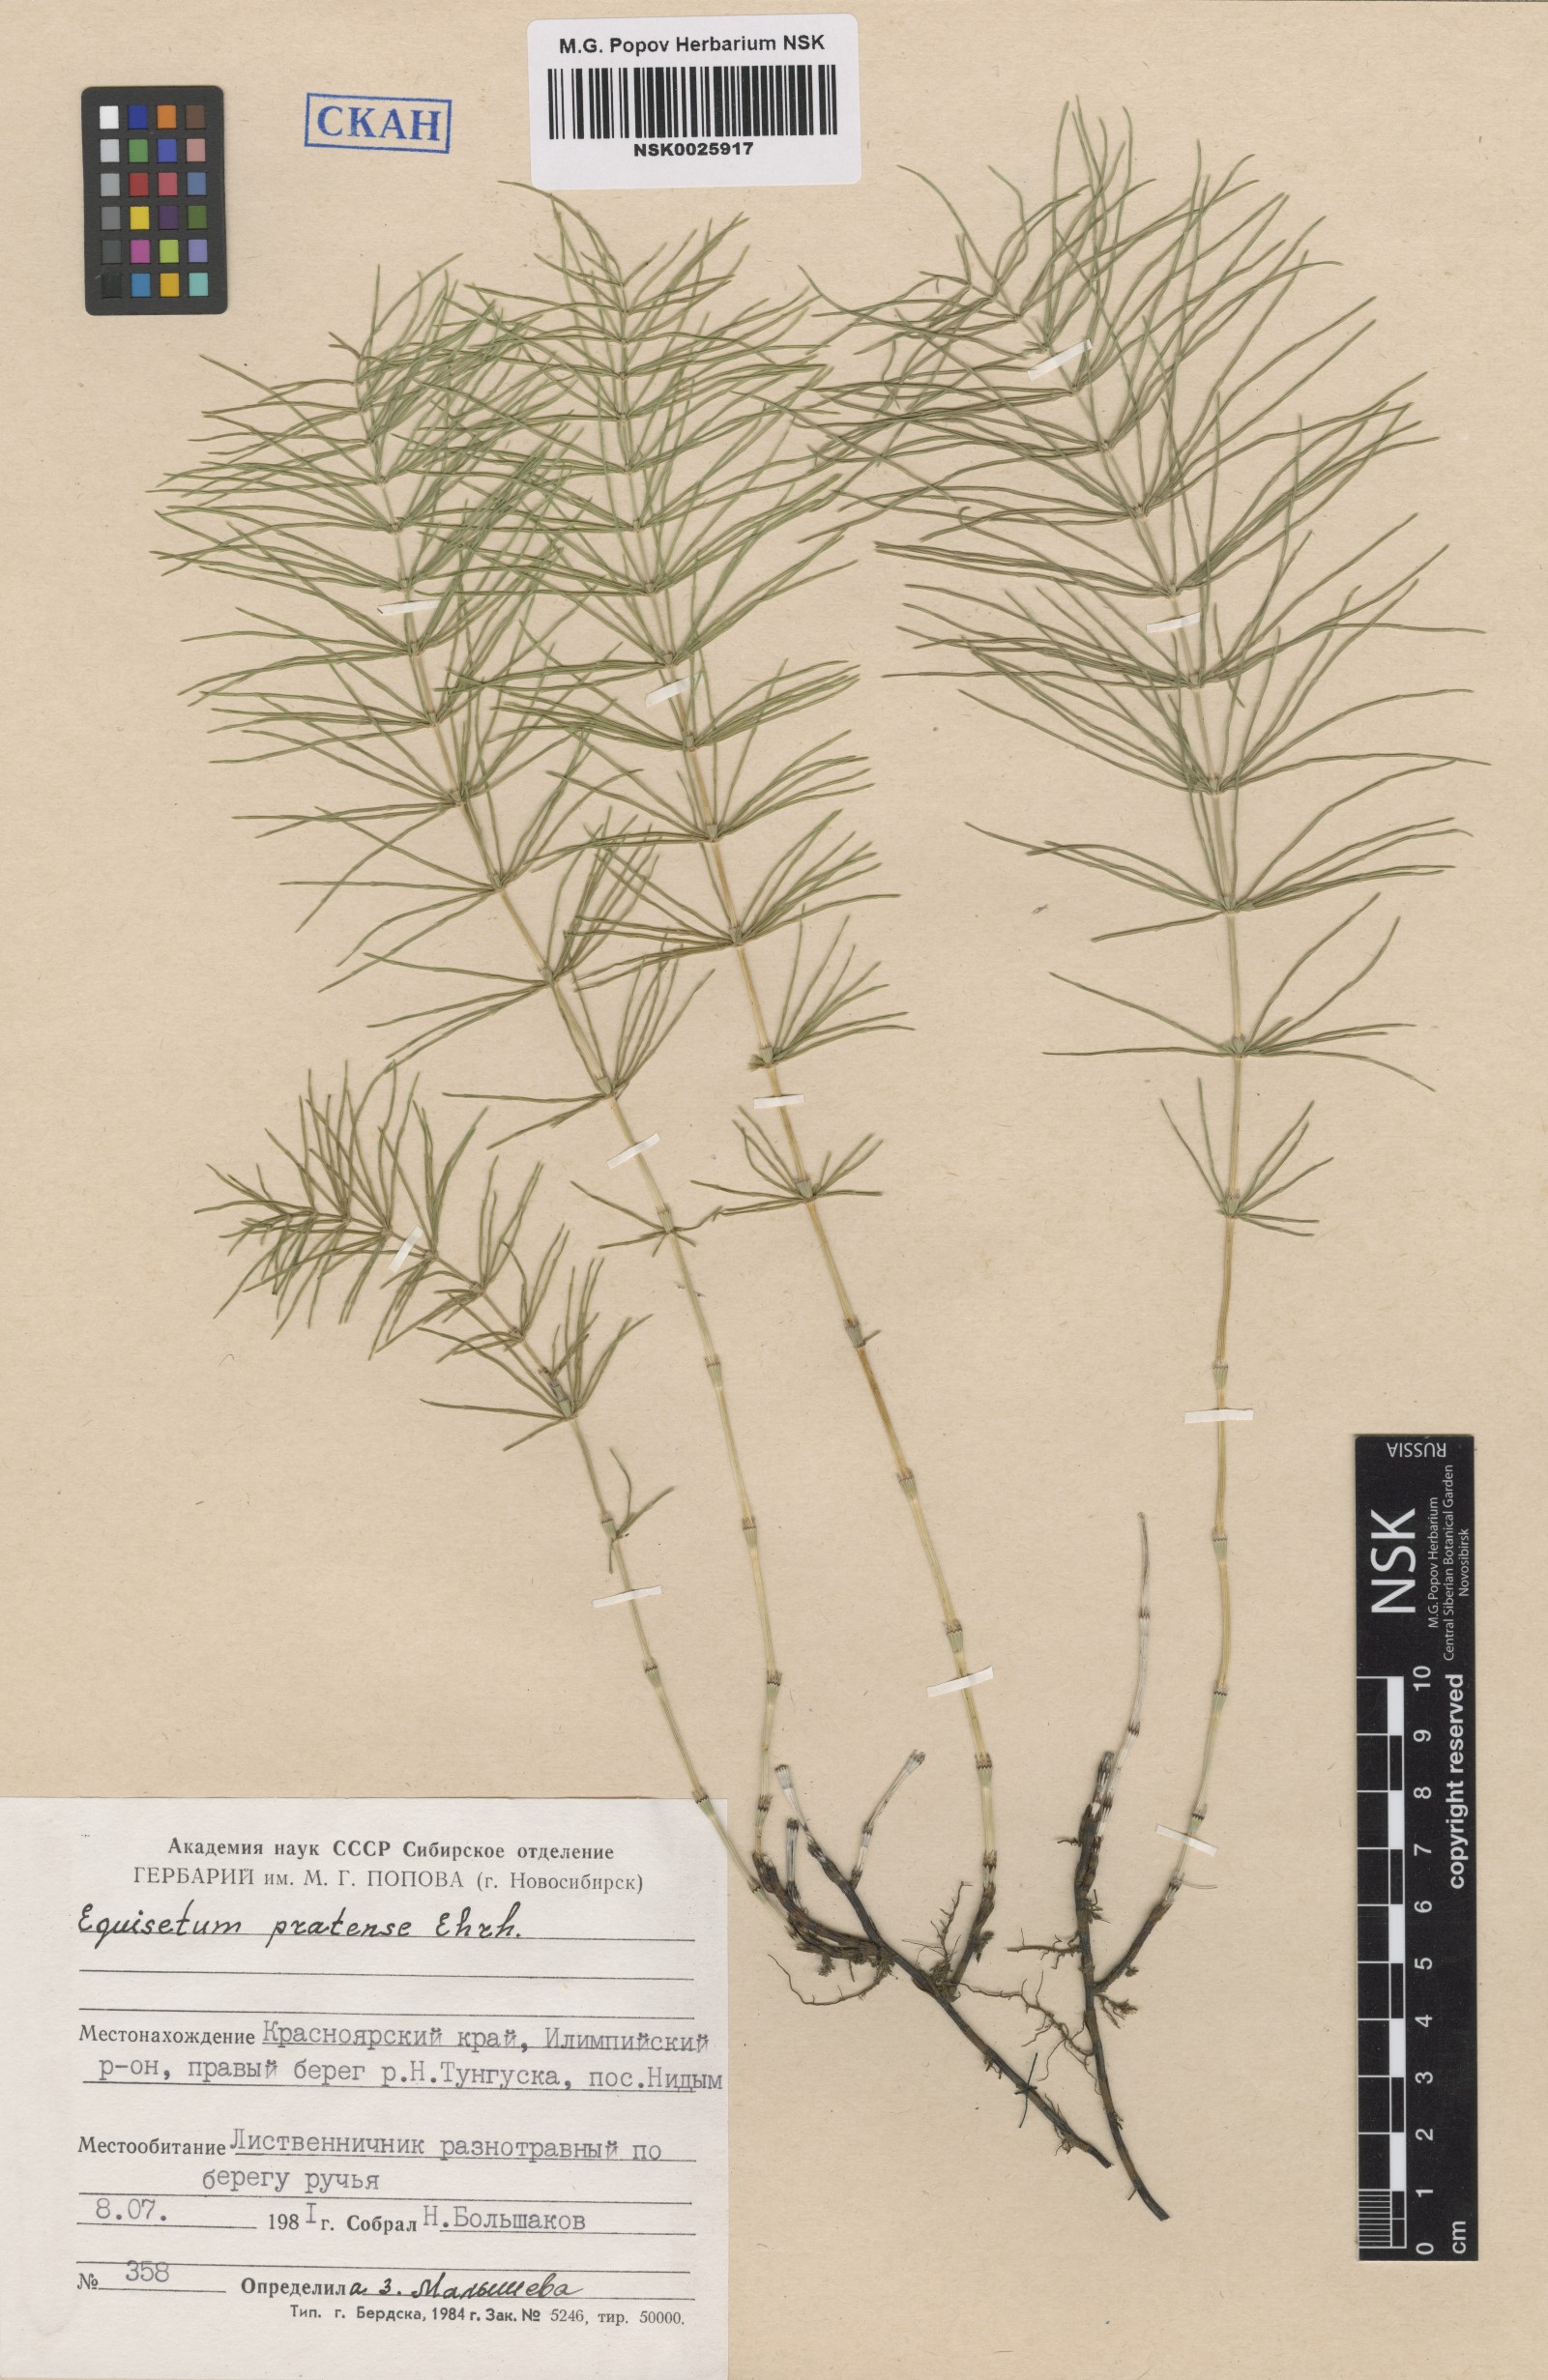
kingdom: Plantae
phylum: Tracheophyta
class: Polypodiopsida
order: Equisetales
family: Equisetaceae
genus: Equisetum
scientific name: Equisetum pratense
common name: Meadow horsetail
